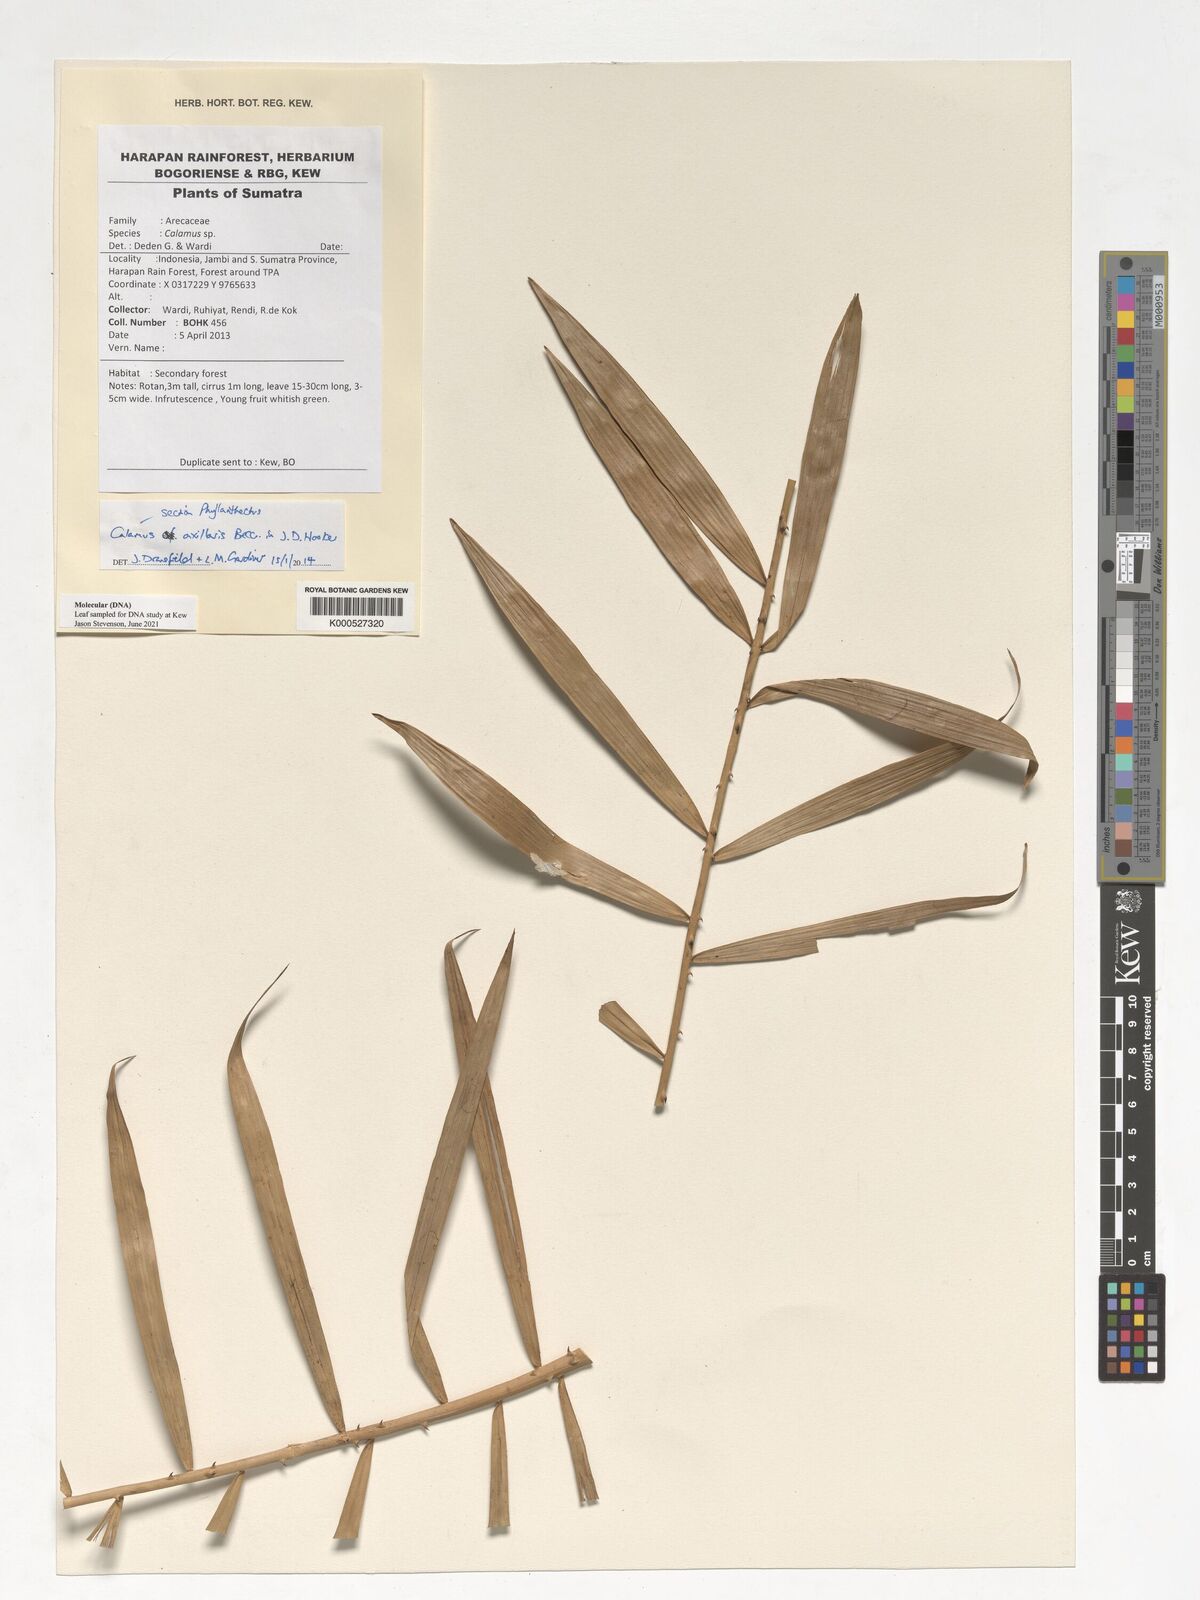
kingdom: Plantae
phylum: Tracheophyta
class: Liliopsida
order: Arecales
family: Arecaceae
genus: Calamus
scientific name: Calamus axillaris
